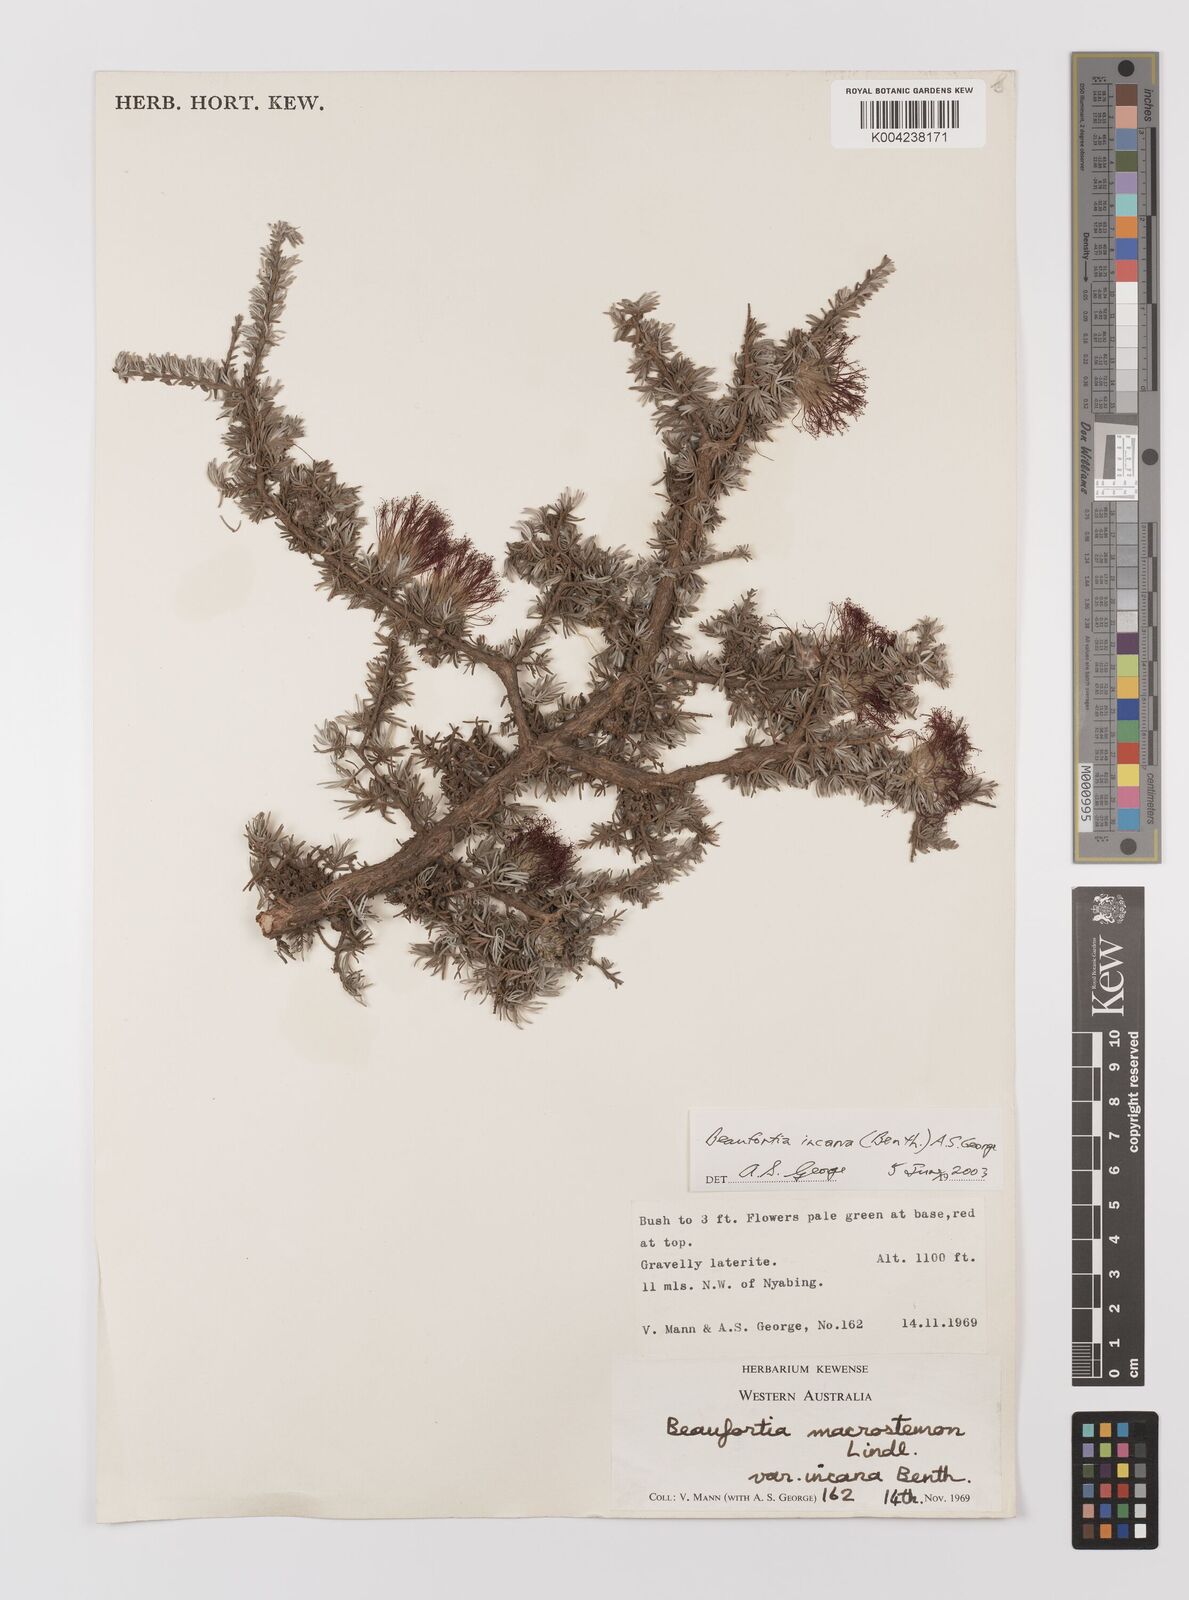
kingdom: Plantae
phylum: Tracheophyta
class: Magnoliopsida
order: Myrtales
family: Myrtaceae
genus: Melaleuca
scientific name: Melaleuca cinerea
